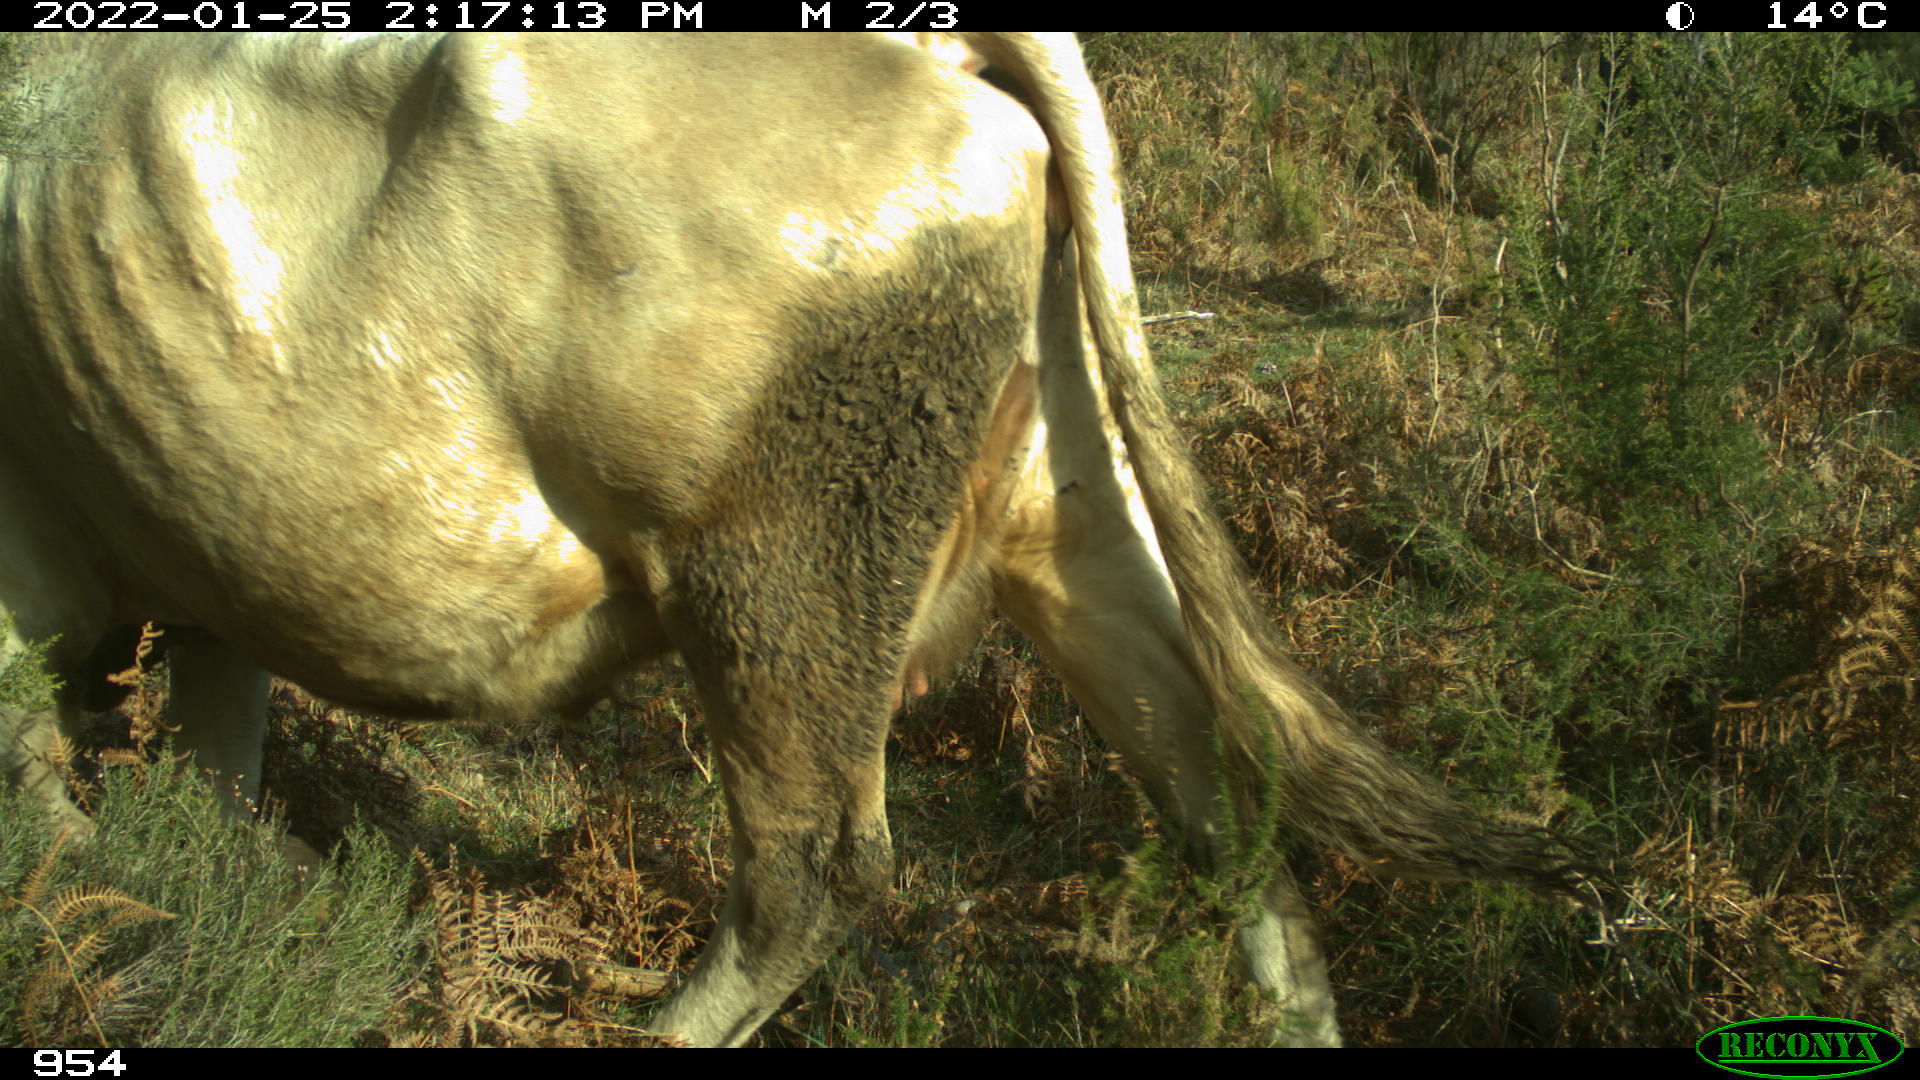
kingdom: Animalia
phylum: Chordata
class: Mammalia
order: Artiodactyla
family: Bovidae
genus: Bos
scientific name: Bos taurus
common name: Domesticated cattle
